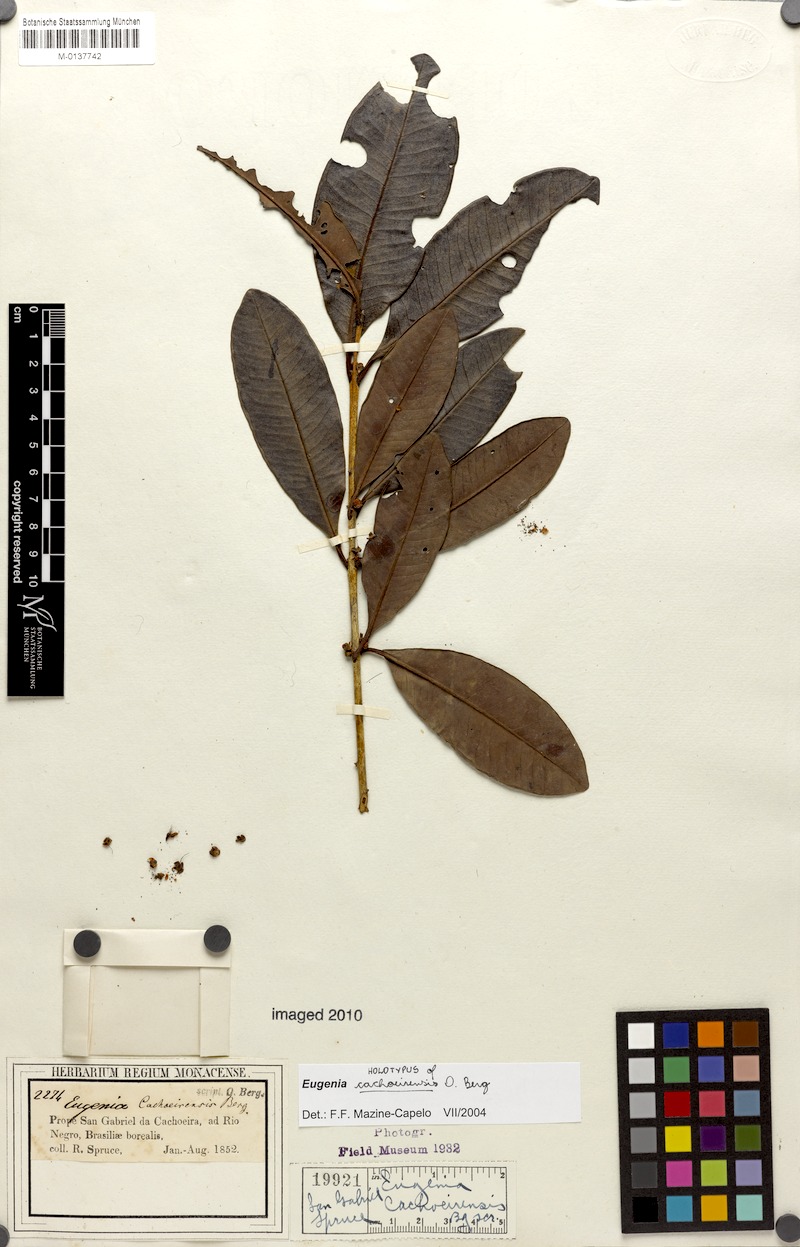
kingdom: Plantae
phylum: Tracheophyta
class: Magnoliopsida
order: Myrtales
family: Myrtaceae
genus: Eugenia
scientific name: Eugenia cachoeirensis
